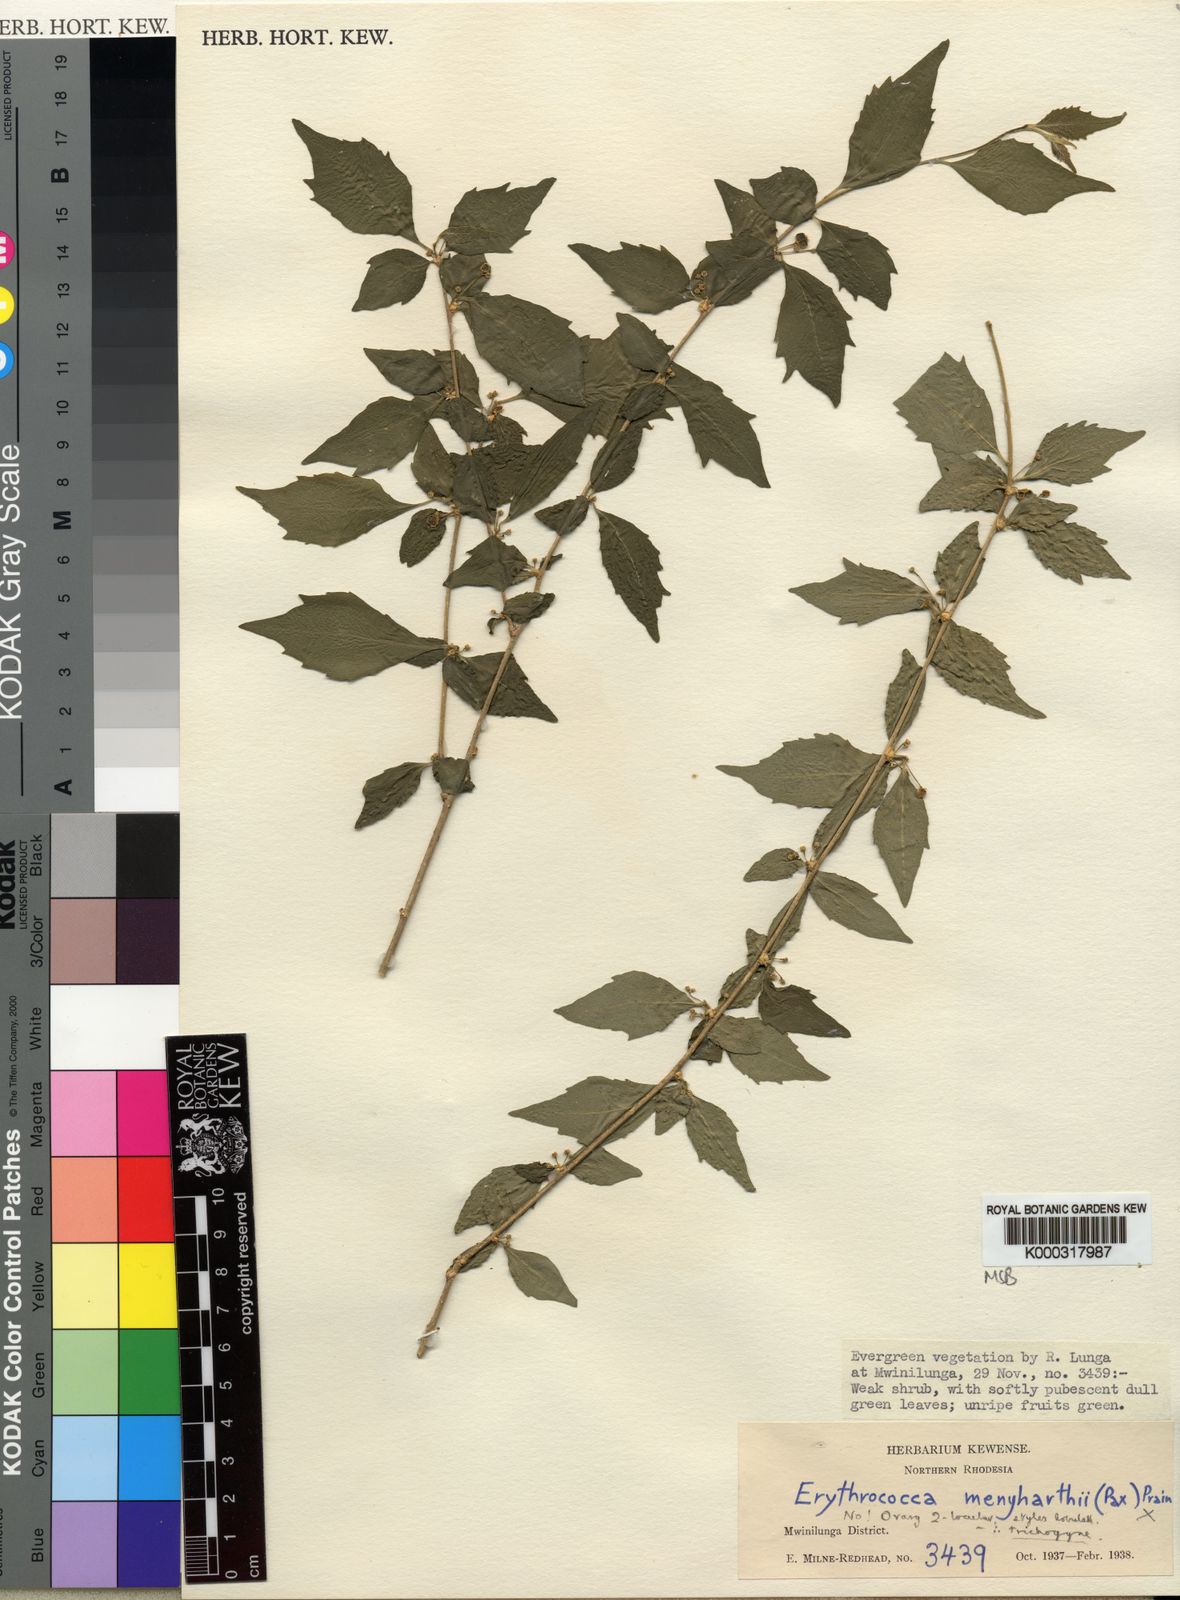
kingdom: Plantae
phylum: Tracheophyta
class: Magnoliopsida
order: Malpighiales
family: Euphorbiaceae
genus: Erythrococca
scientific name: Erythrococca trichogyne
